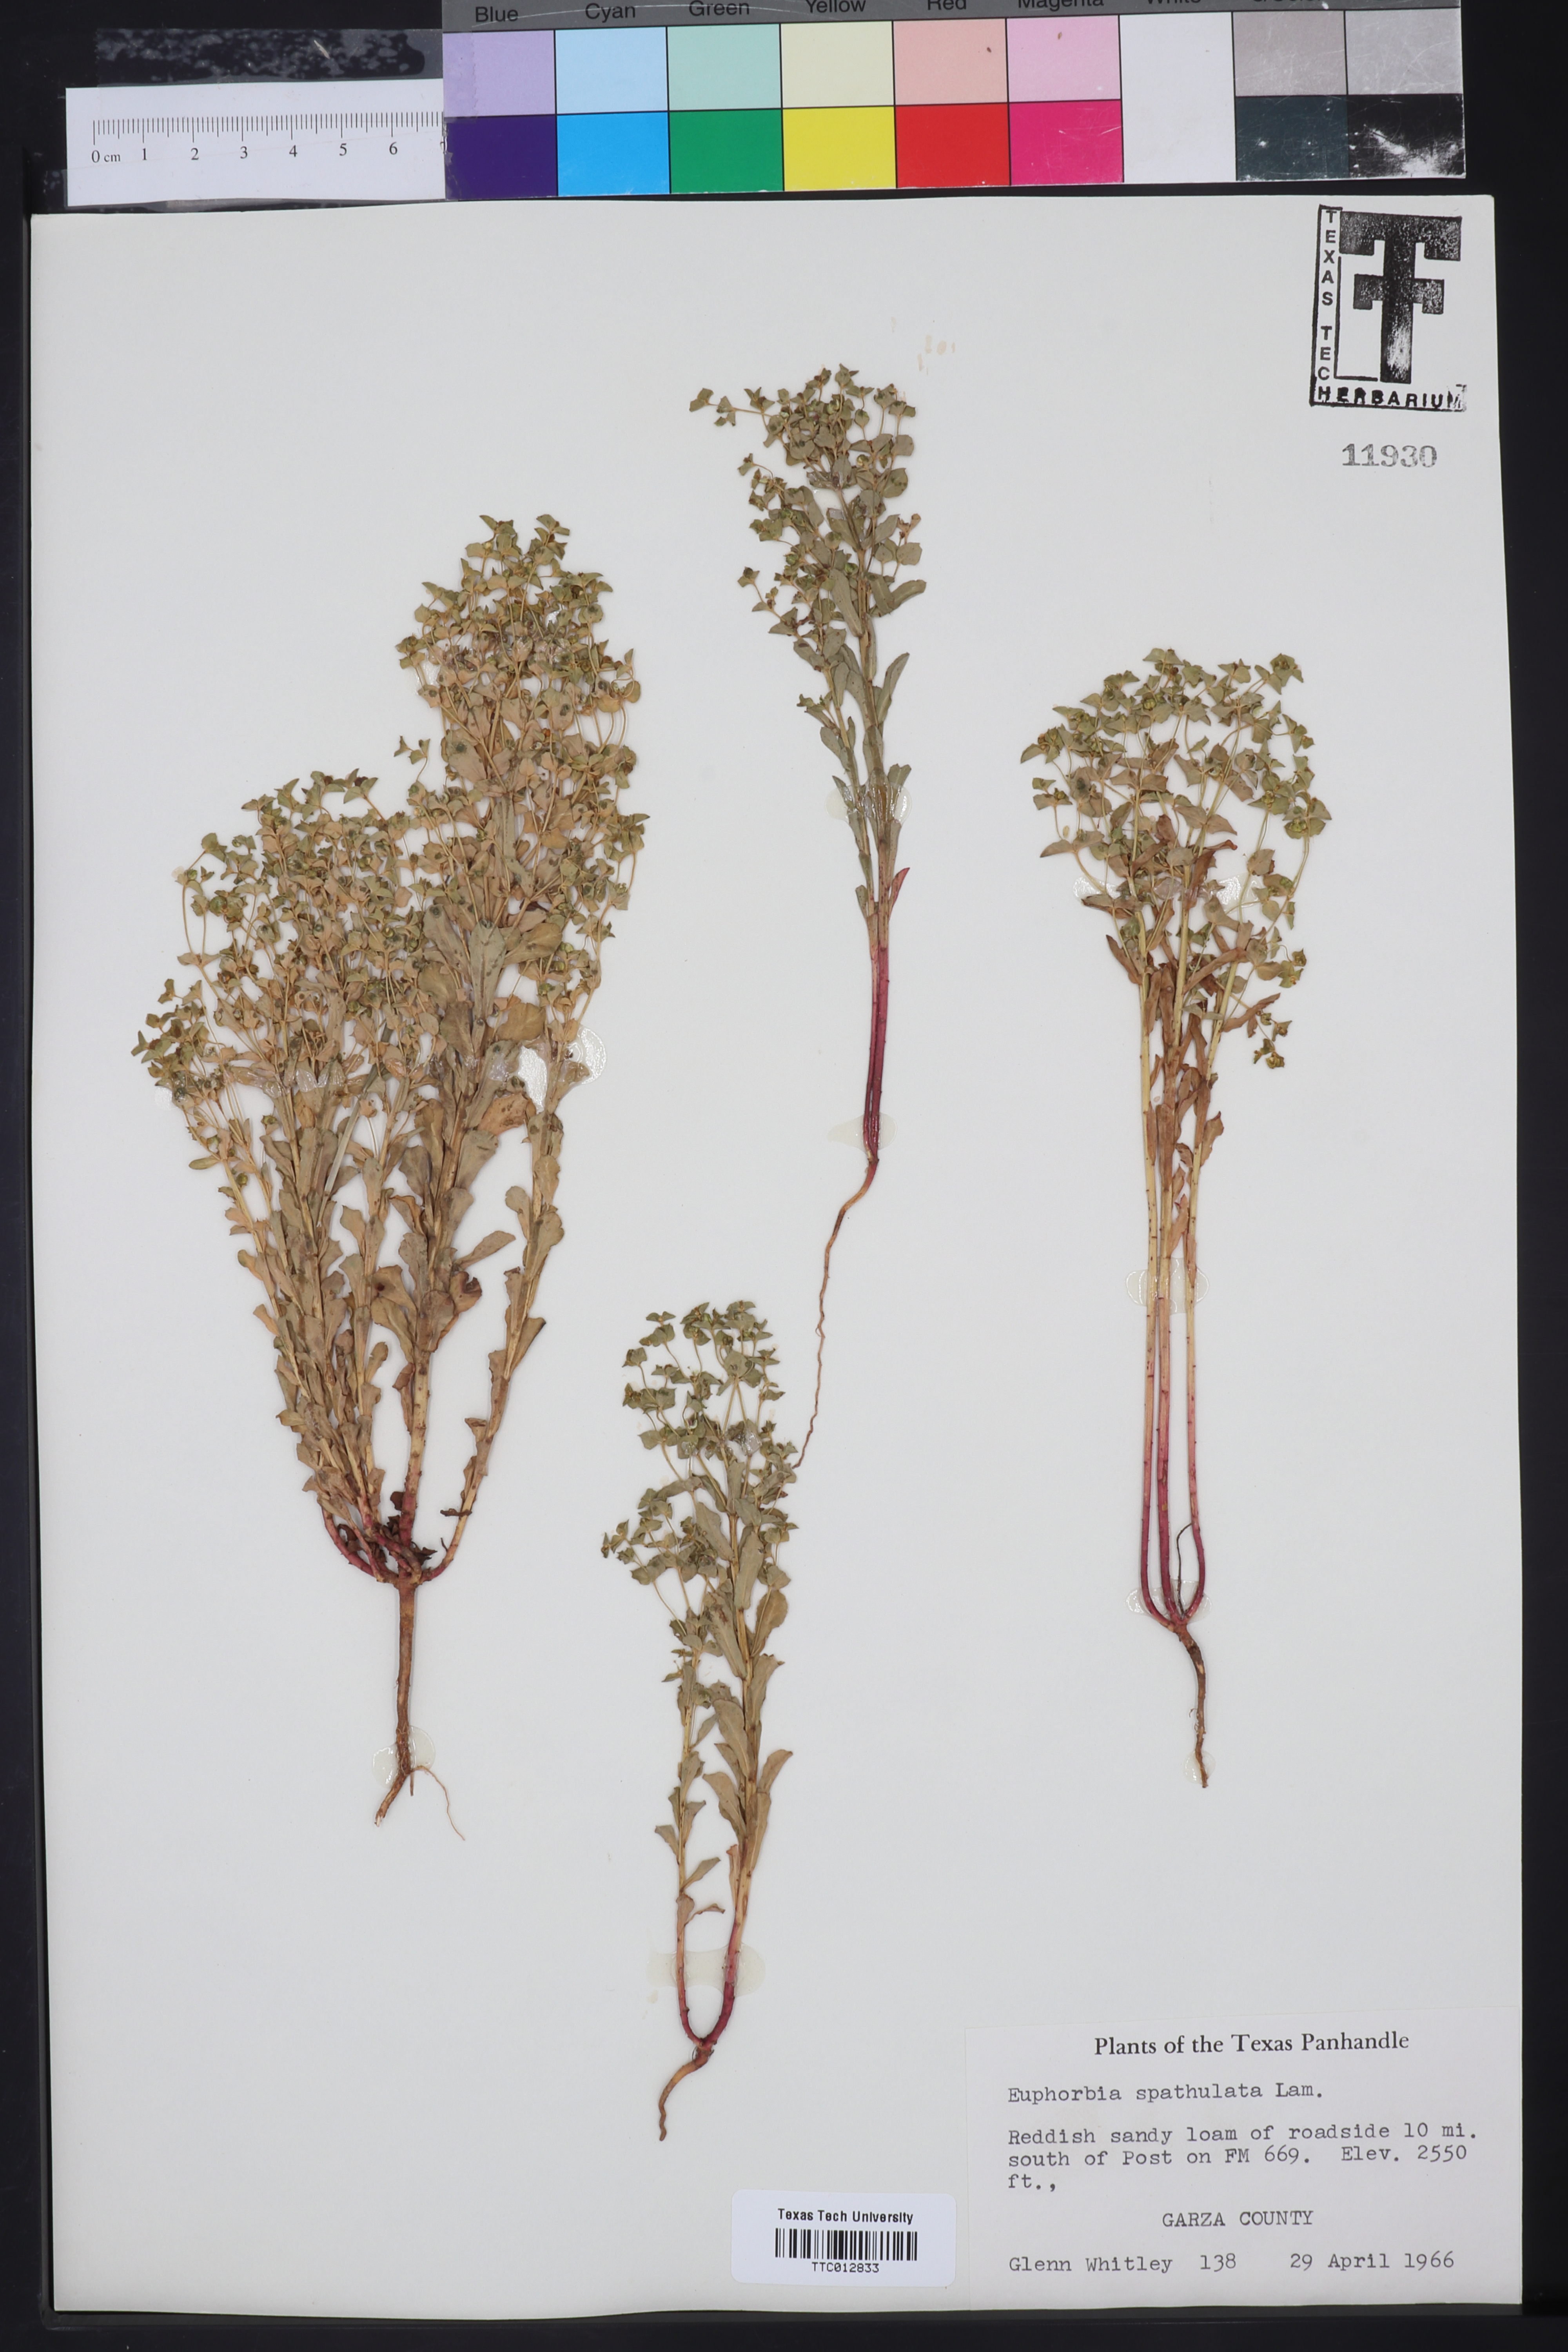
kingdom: Plantae
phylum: Tracheophyta
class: Magnoliopsida
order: Malpighiales
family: Euphorbiaceae
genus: Euphorbia
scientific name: Euphorbia spathulata
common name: Blunt spurge
